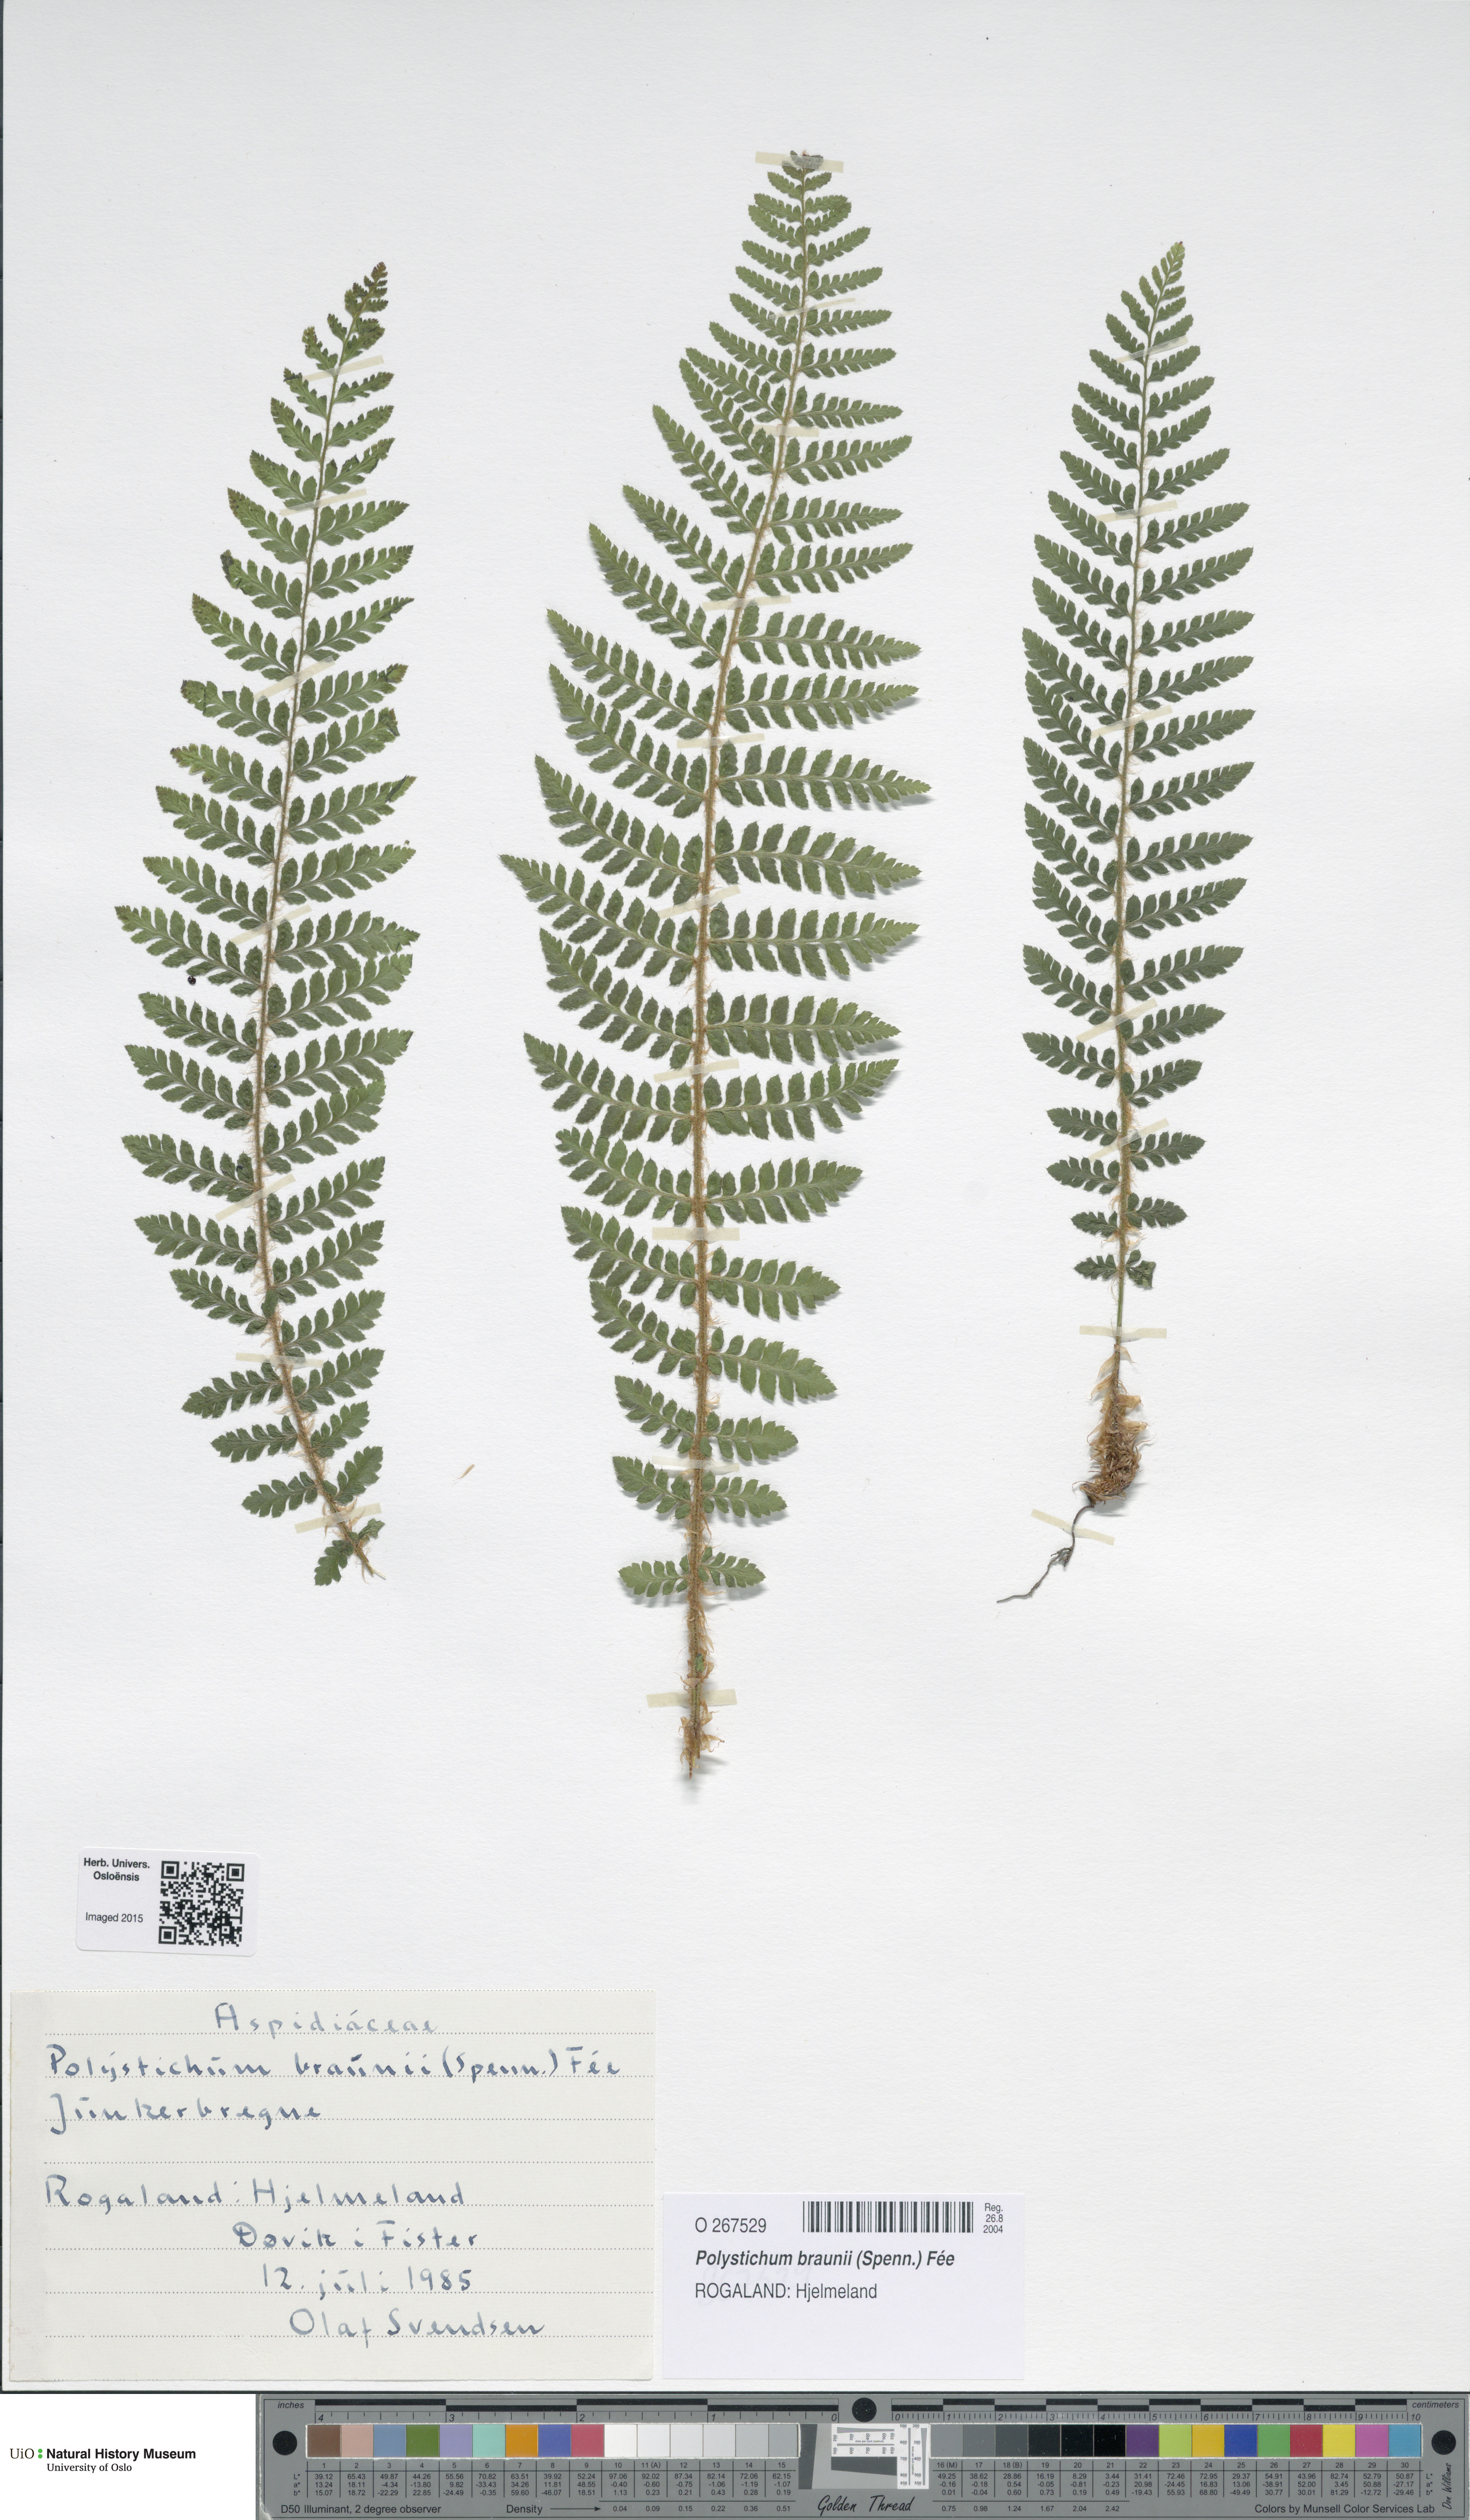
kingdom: Plantae
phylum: Tracheophyta
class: Polypodiopsida
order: Polypodiales
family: Dryopteridaceae
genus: Polystichum
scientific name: Polystichum braunii
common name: Braun's holly fern
